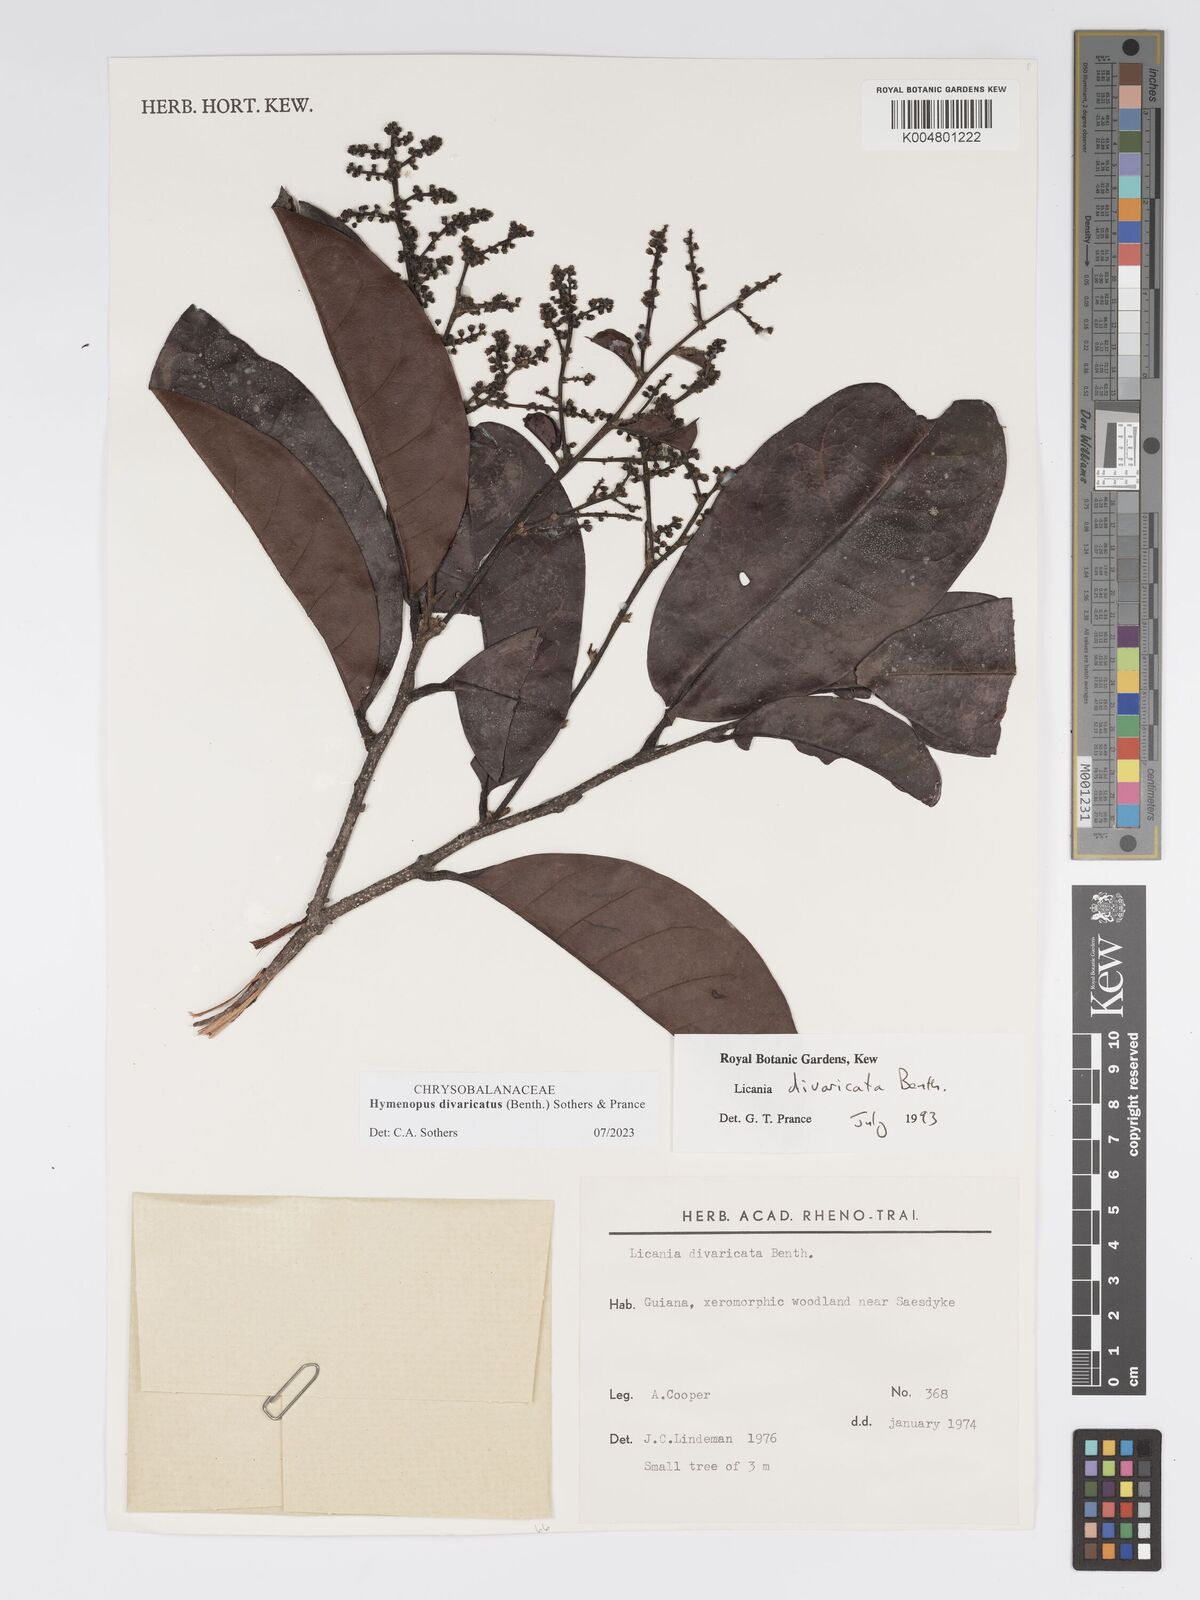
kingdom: Plantae
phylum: Tracheophyta
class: Magnoliopsida
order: Malpighiales
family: Chrysobalanaceae
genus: Hymenopus
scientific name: Hymenopus divaricatus
